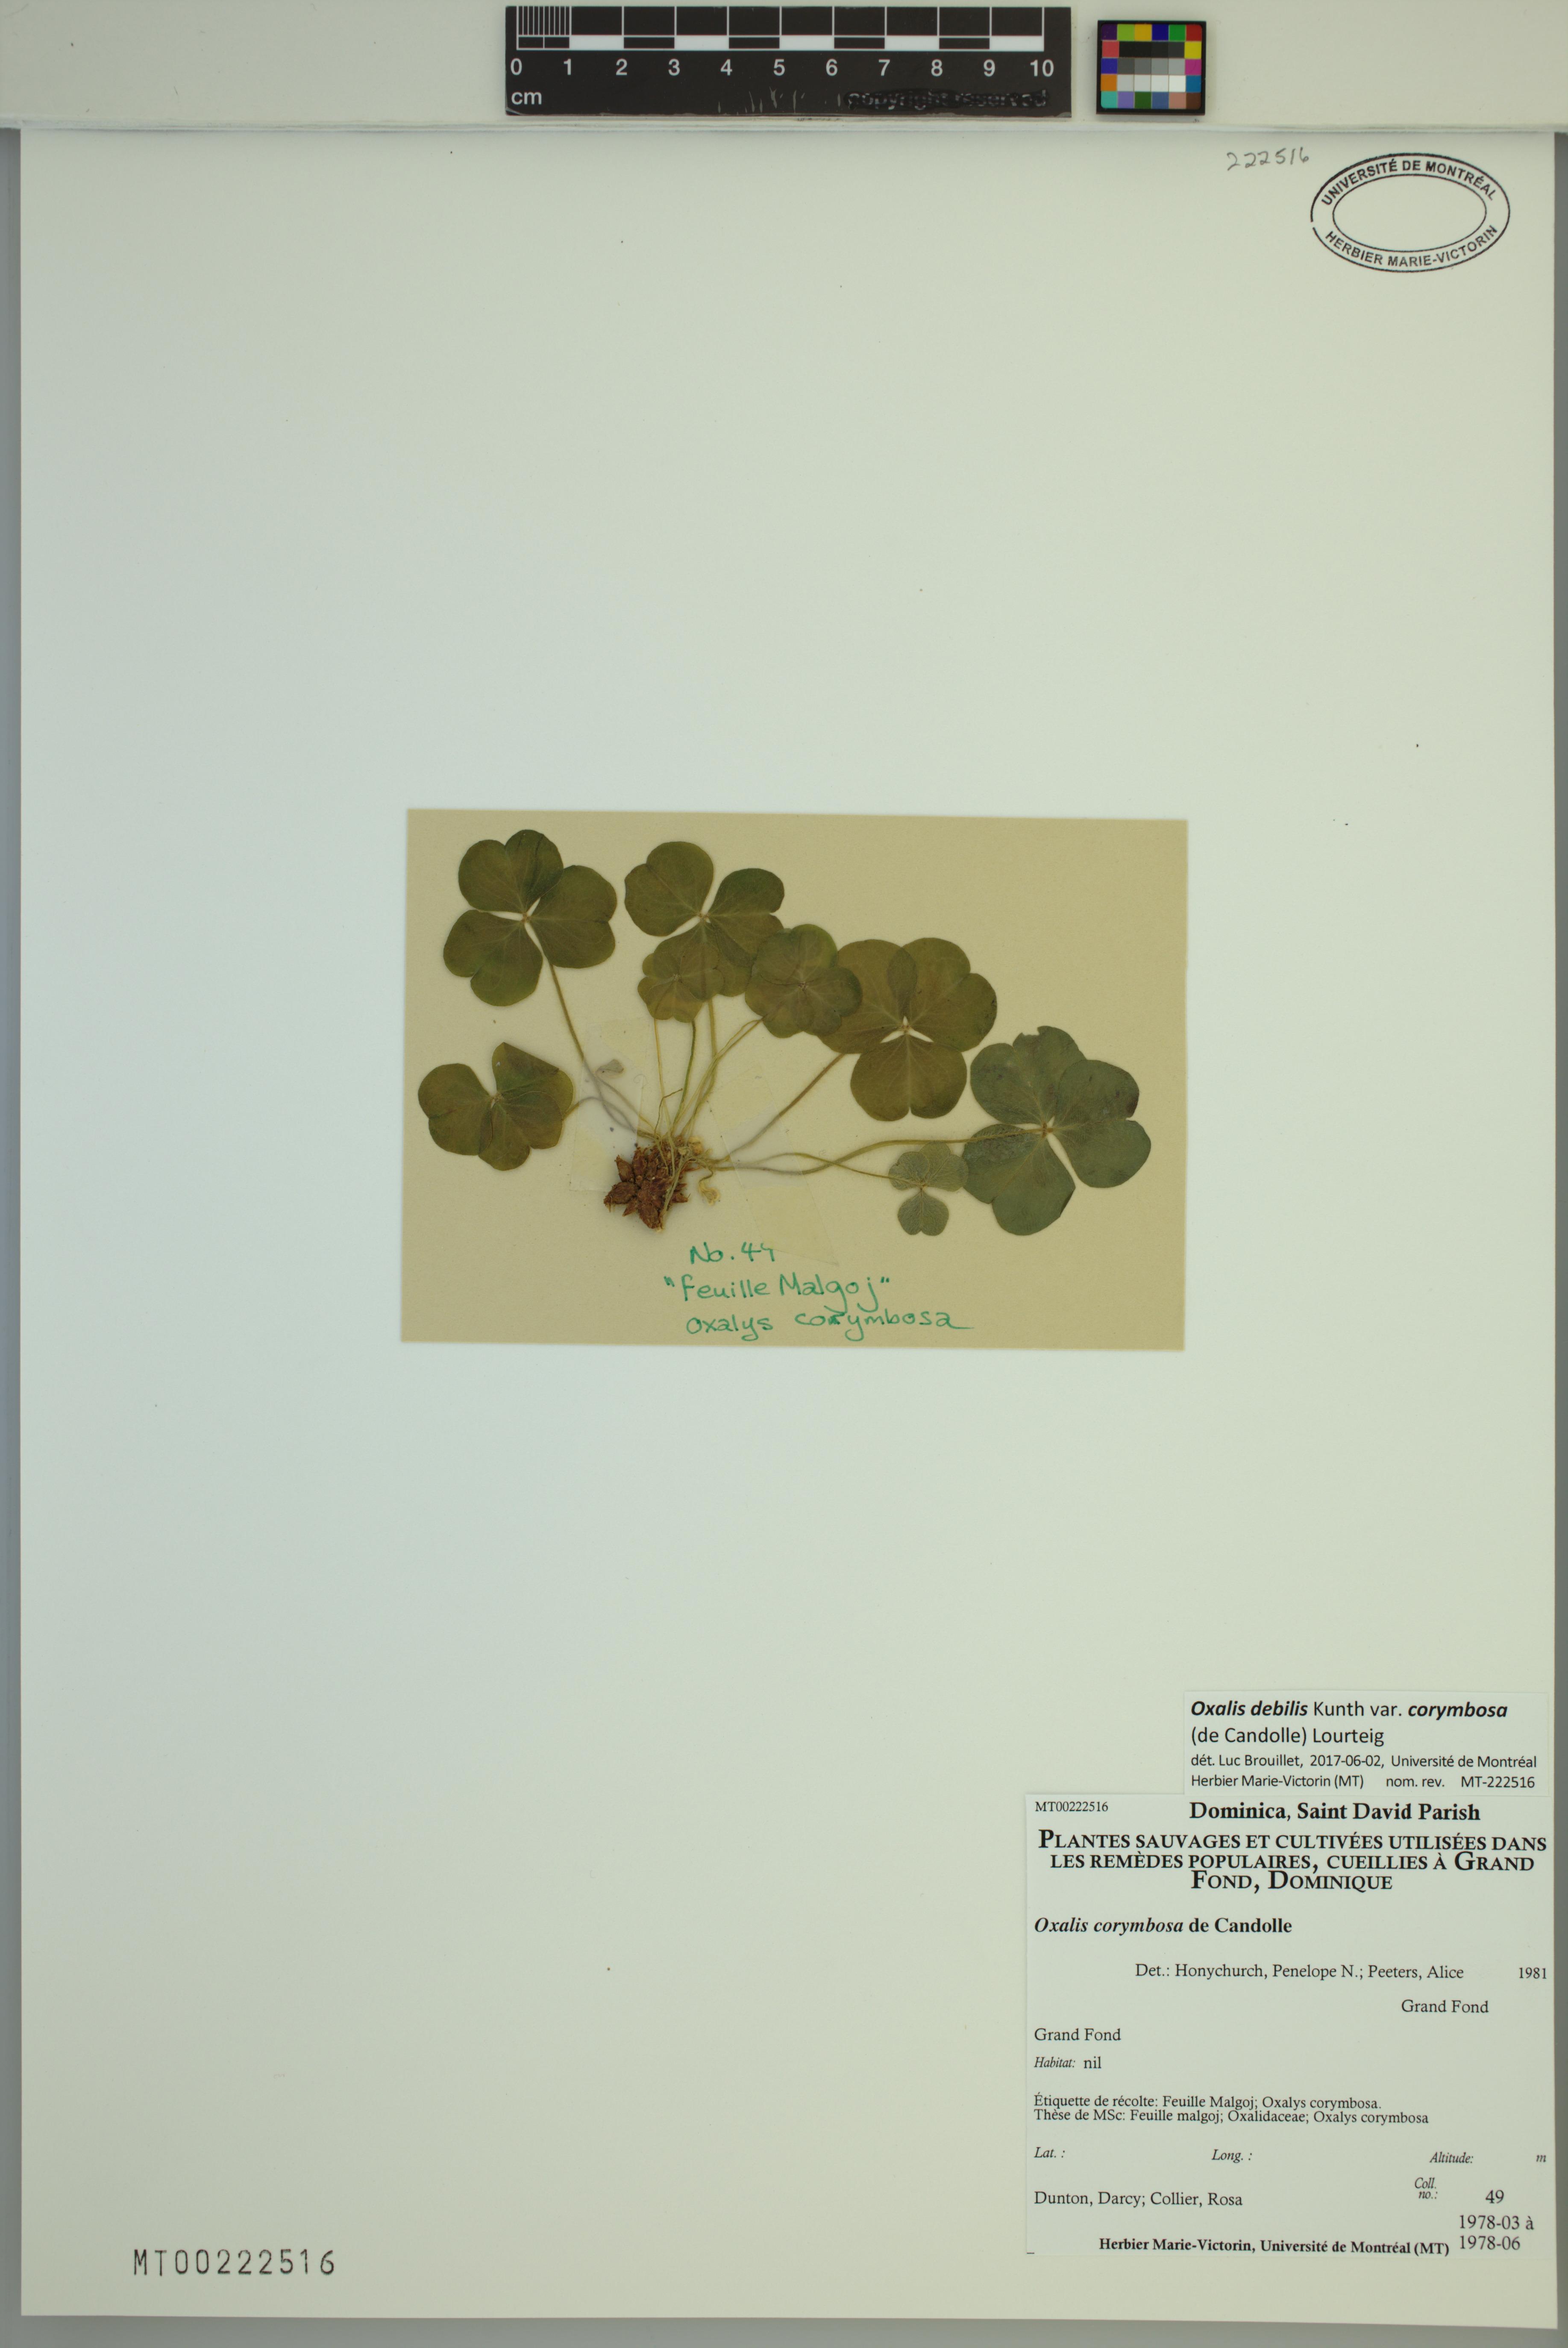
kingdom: Plantae
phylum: Tracheophyta
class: Magnoliopsida
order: Oxalidales
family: Oxalidaceae
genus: Oxalis
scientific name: Oxalis debilis
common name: Large-flowered pink-sorrel
